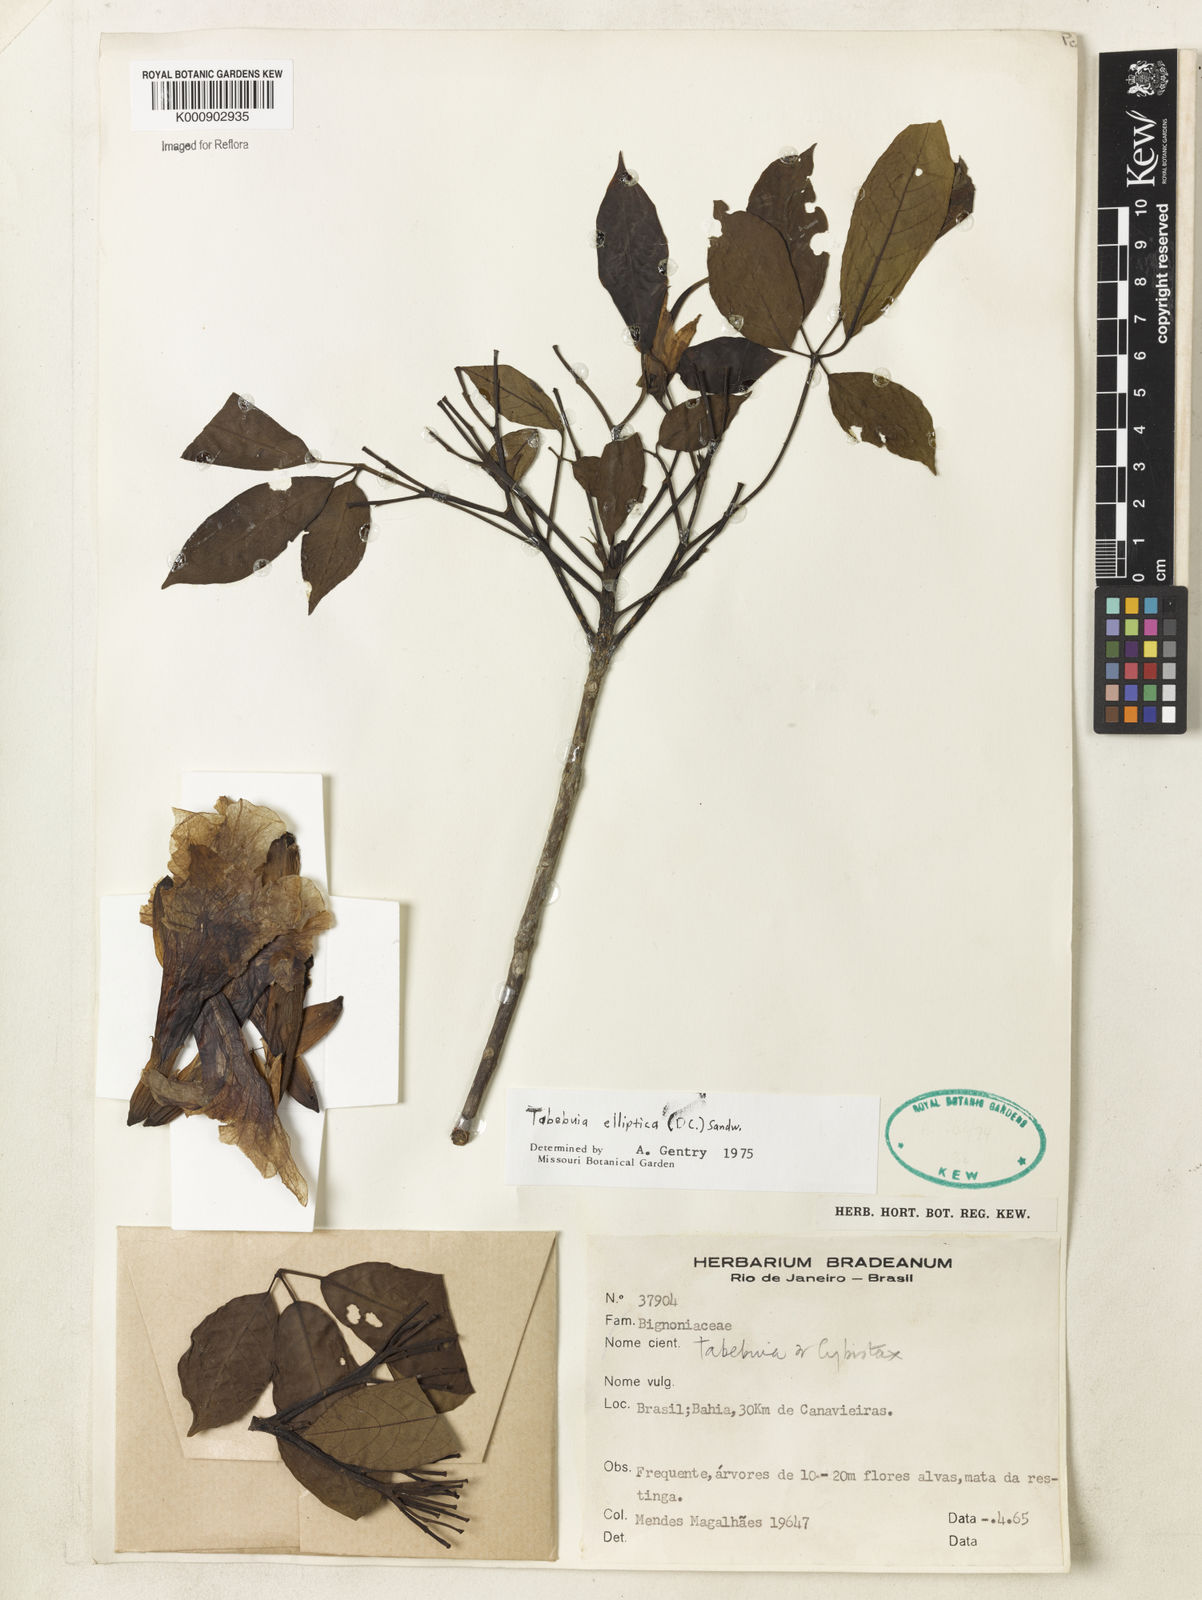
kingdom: Plantae
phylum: Tracheophyta
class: Magnoliopsida
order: Lamiales
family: Bignoniaceae
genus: Tabebuia
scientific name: Tabebuia elliptica
